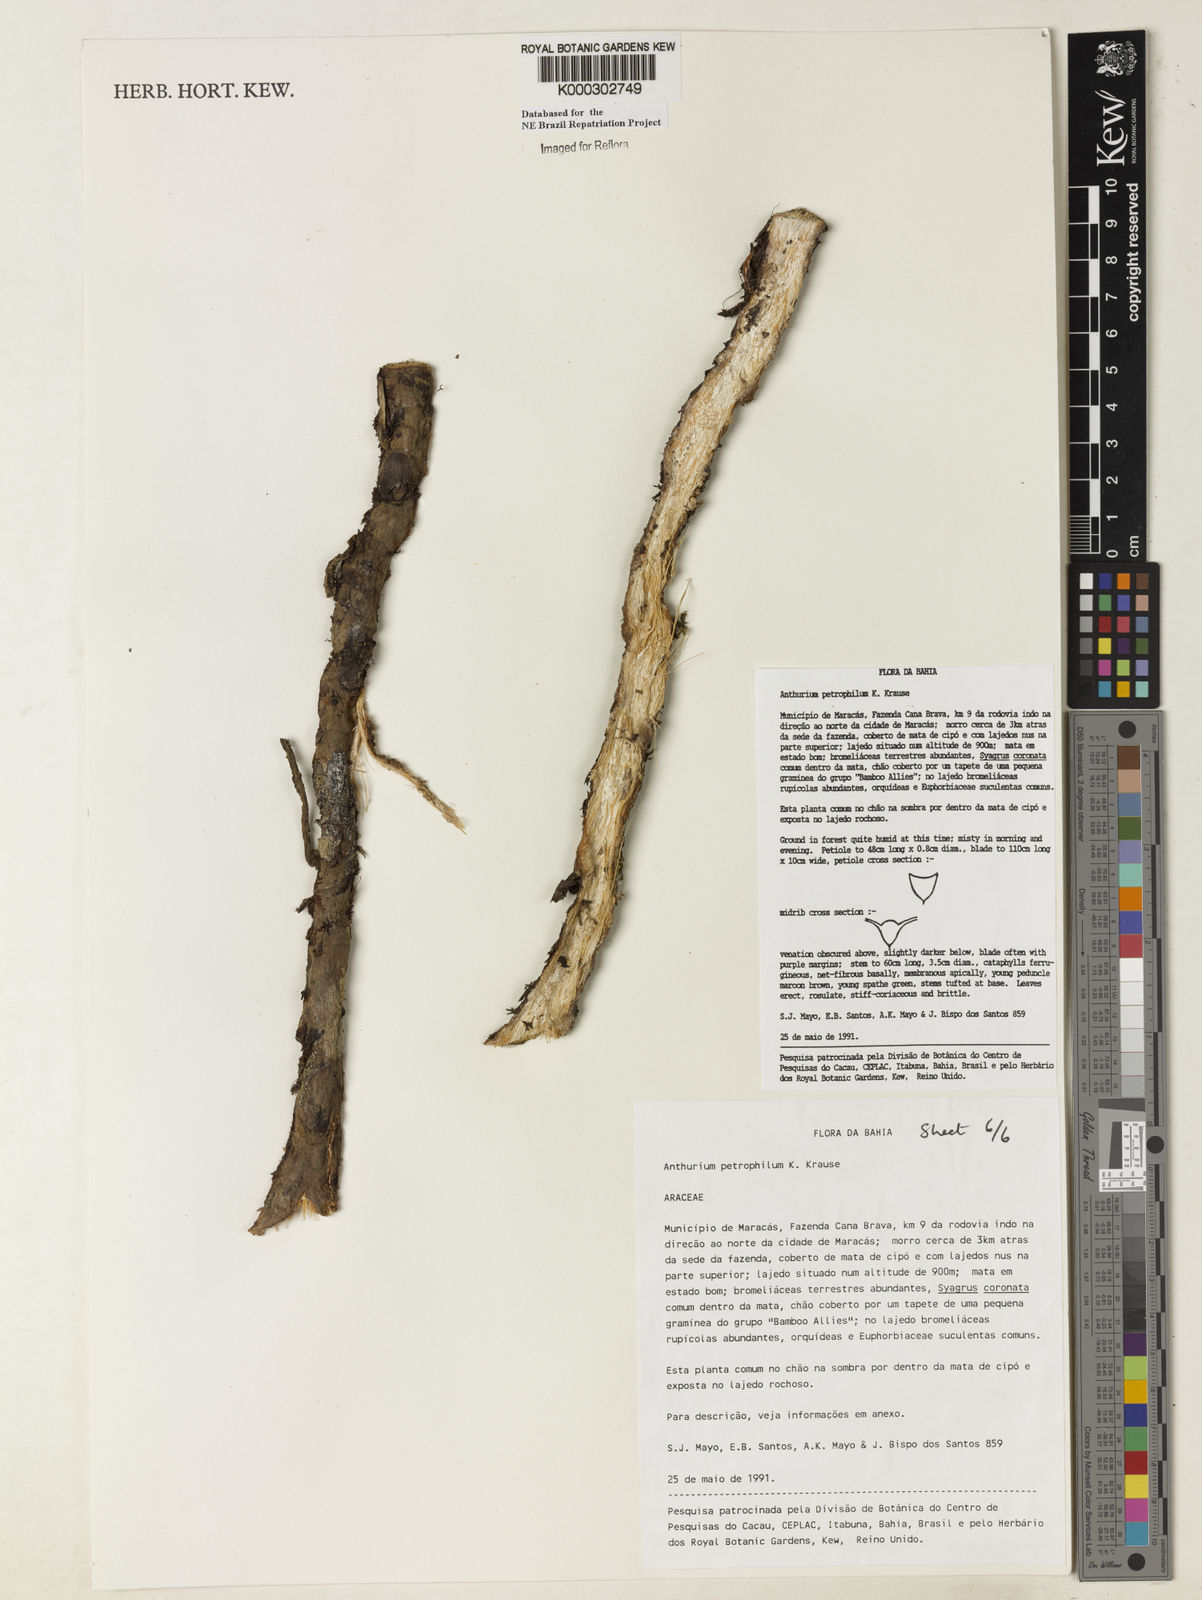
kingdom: Plantae
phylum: Tracheophyta
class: Liliopsida
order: Alismatales
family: Araceae
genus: Anthurium
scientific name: Anthurium petrophilum
